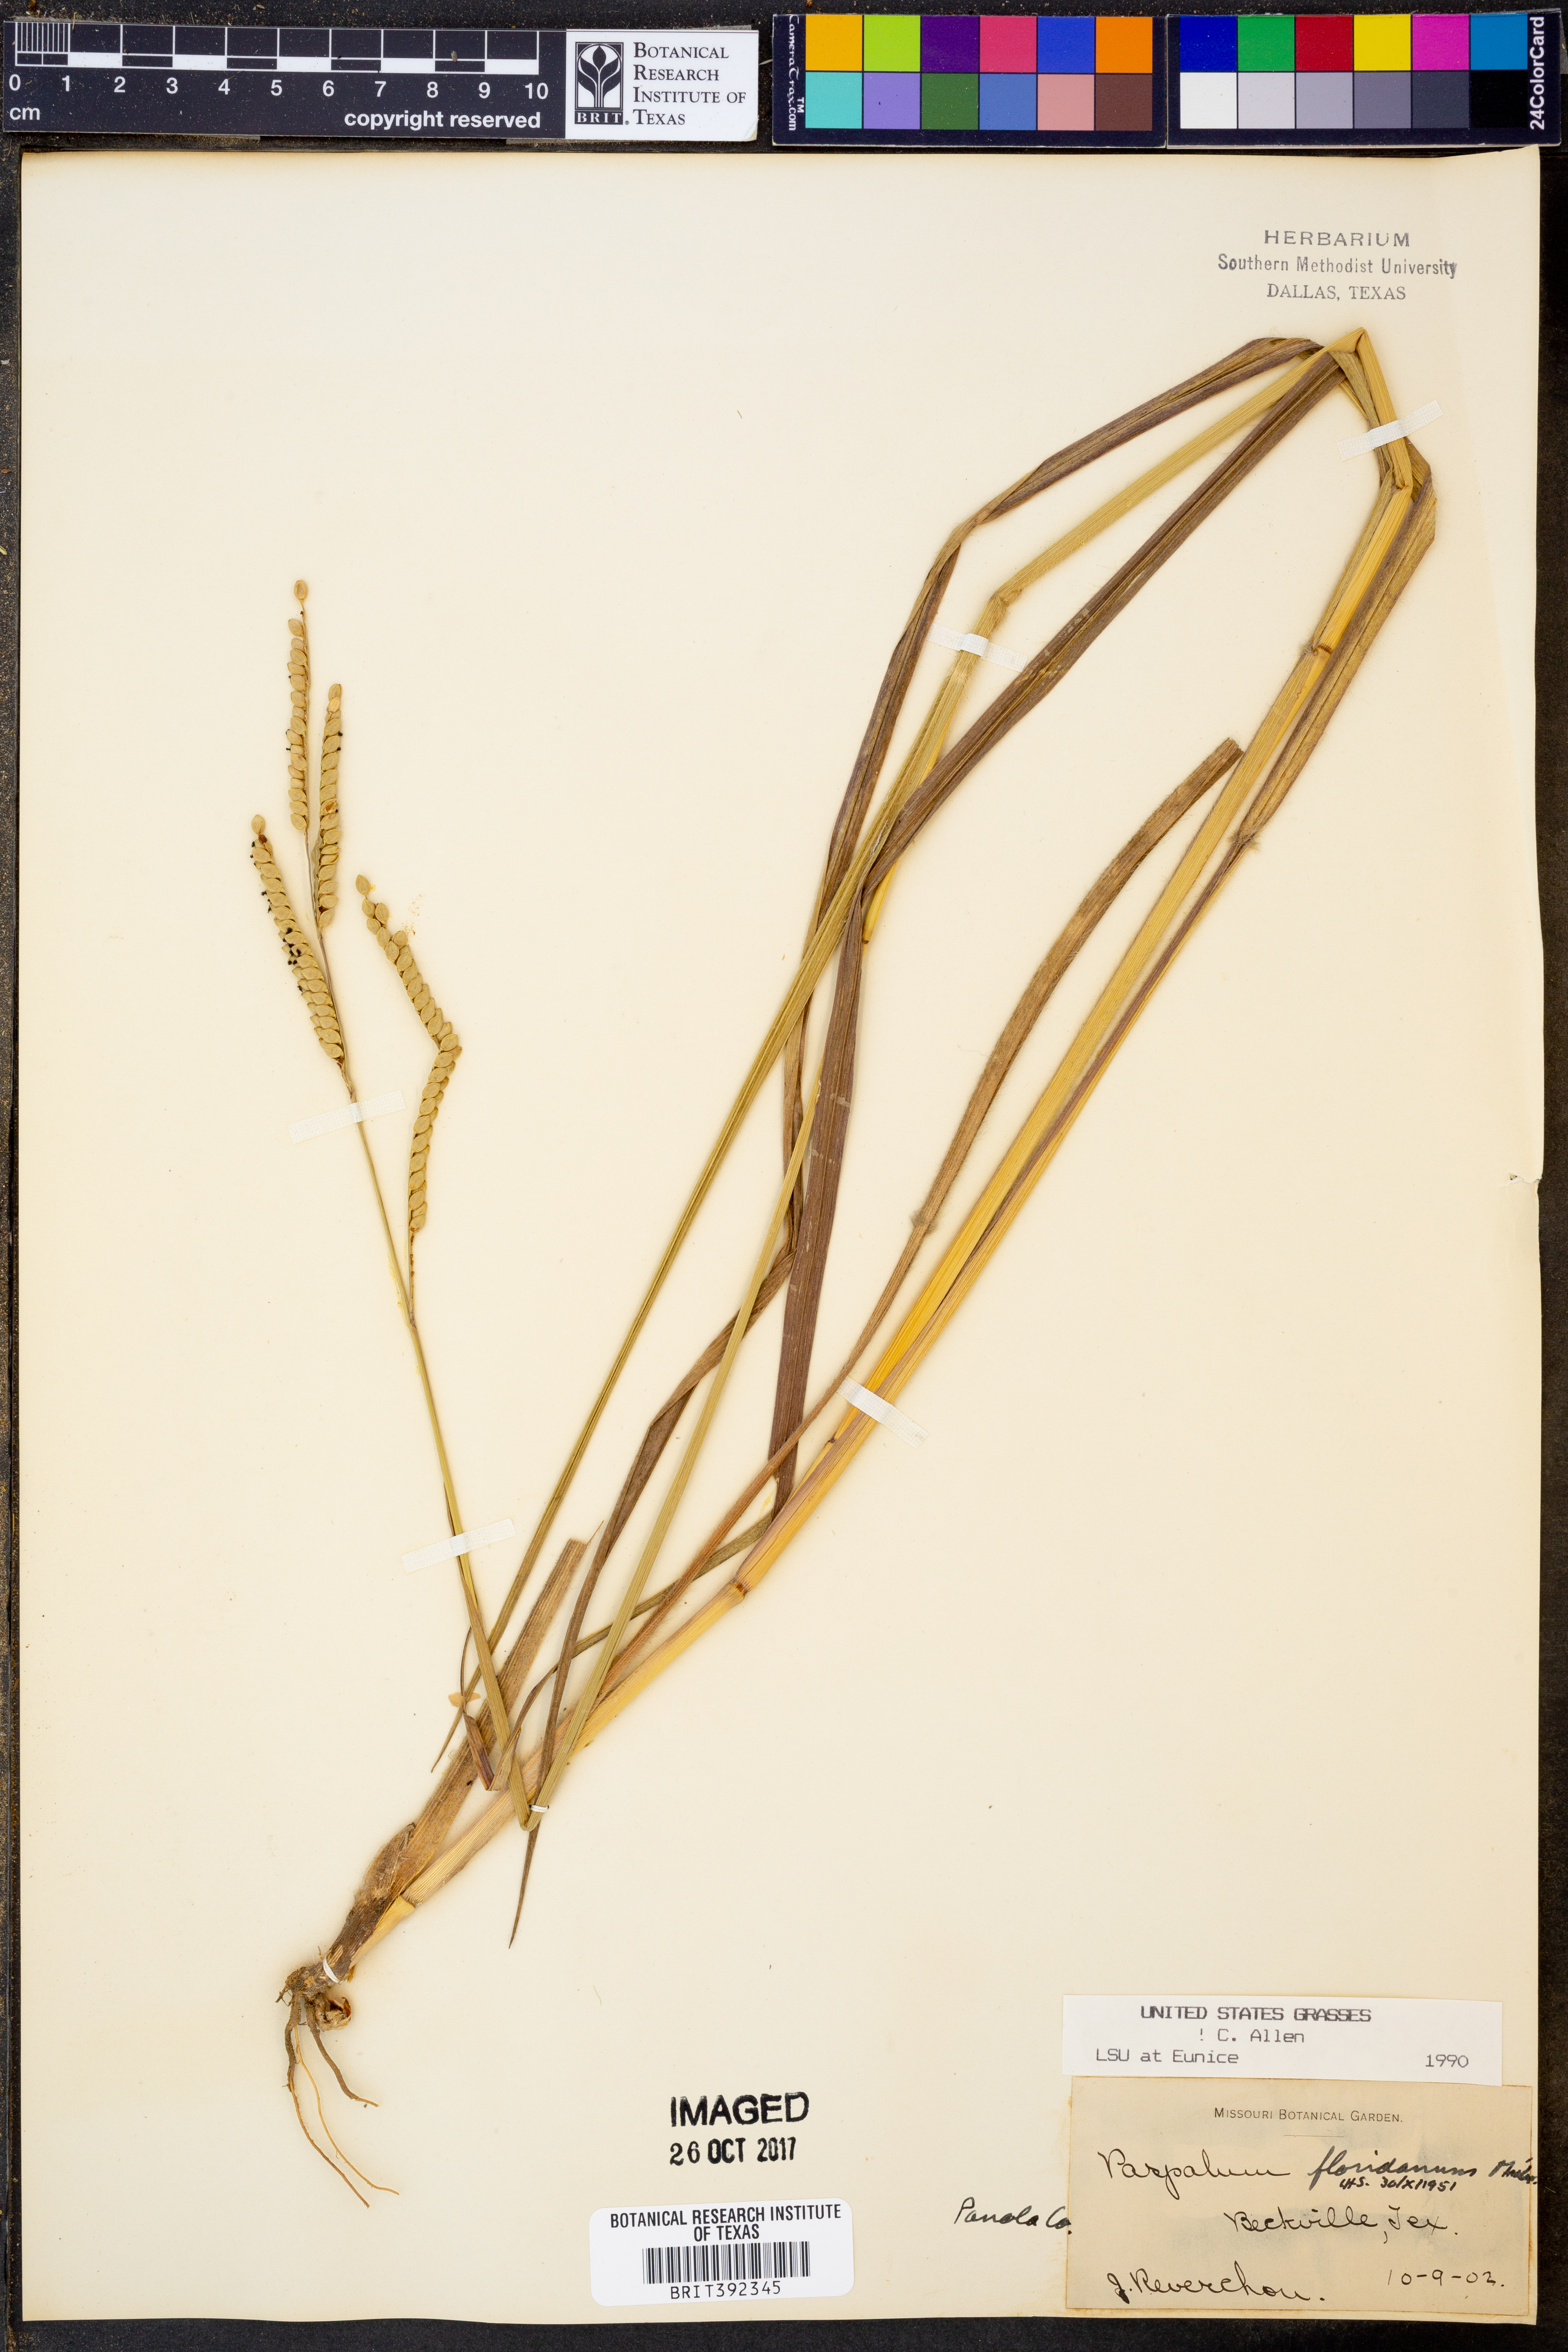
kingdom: Plantae
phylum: Tracheophyta
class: Liliopsida
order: Poales
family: Poaceae
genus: Paspalum
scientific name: Paspalum floridanum
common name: Florida paspalum
